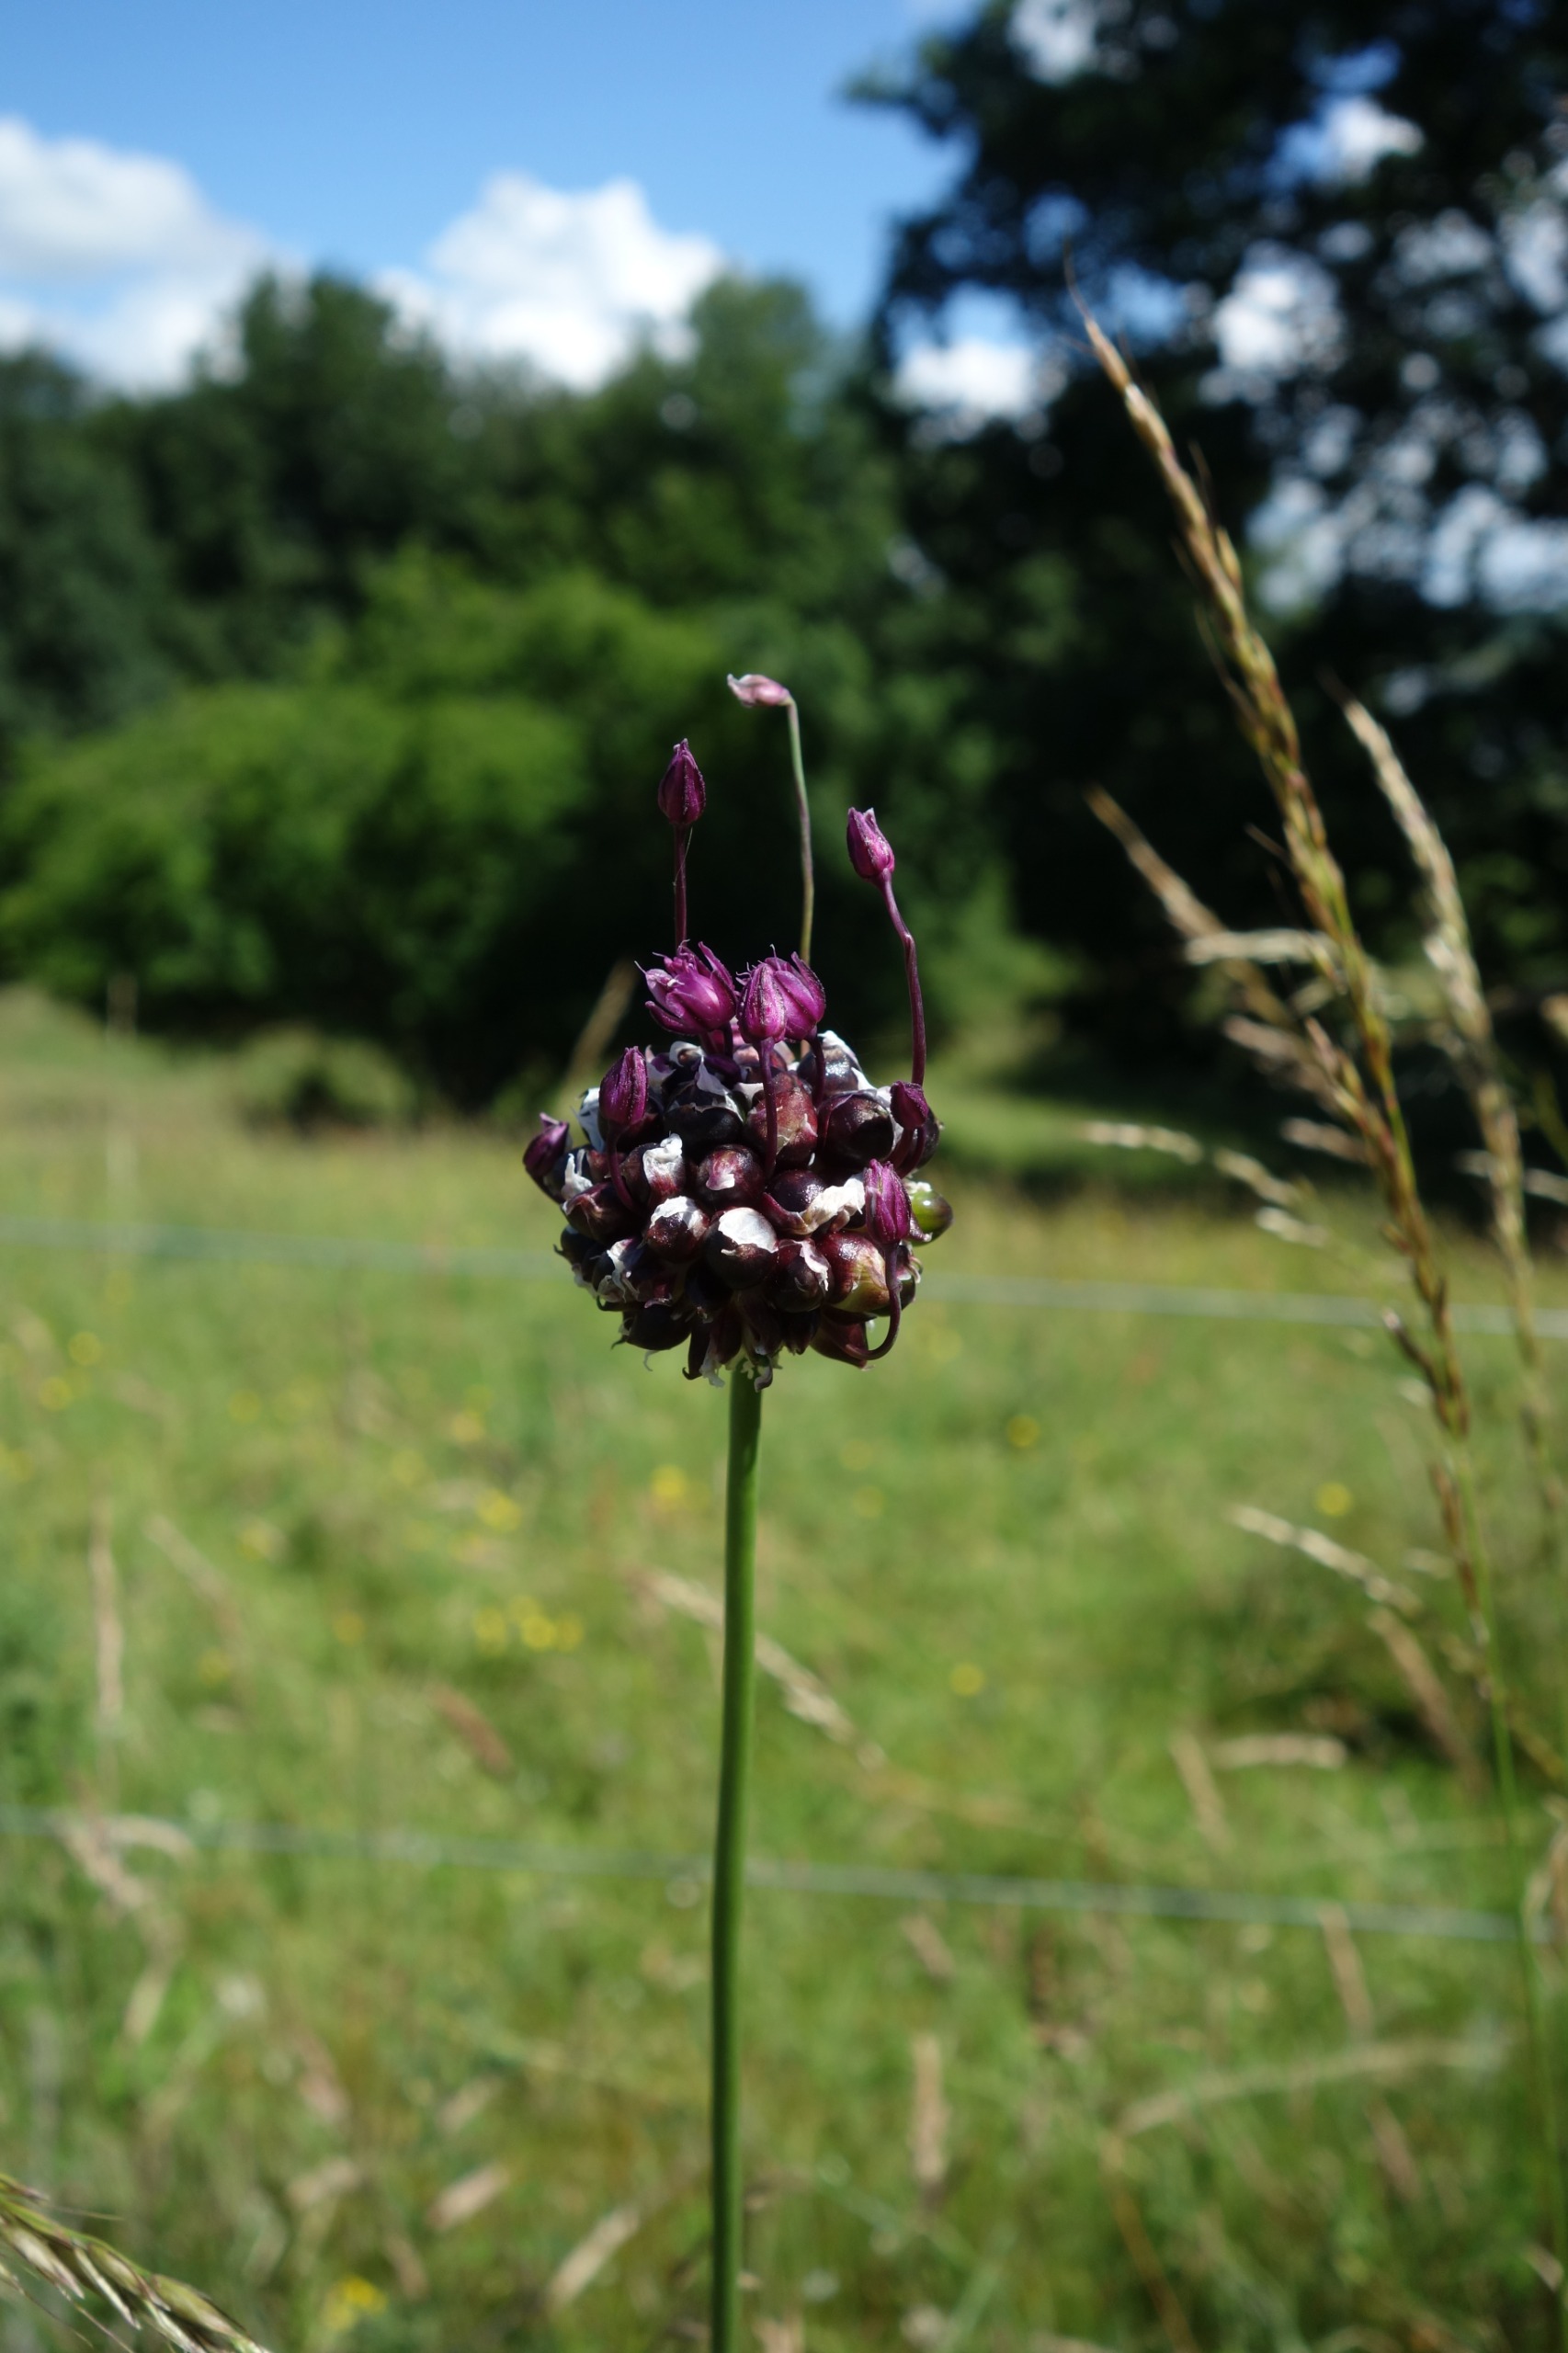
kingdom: Plantae
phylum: Tracheophyta
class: Liliopsida
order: Asparagales
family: Amaryllidaceae
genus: Allium
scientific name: Allium scorodoprasum
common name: Skov-løg
